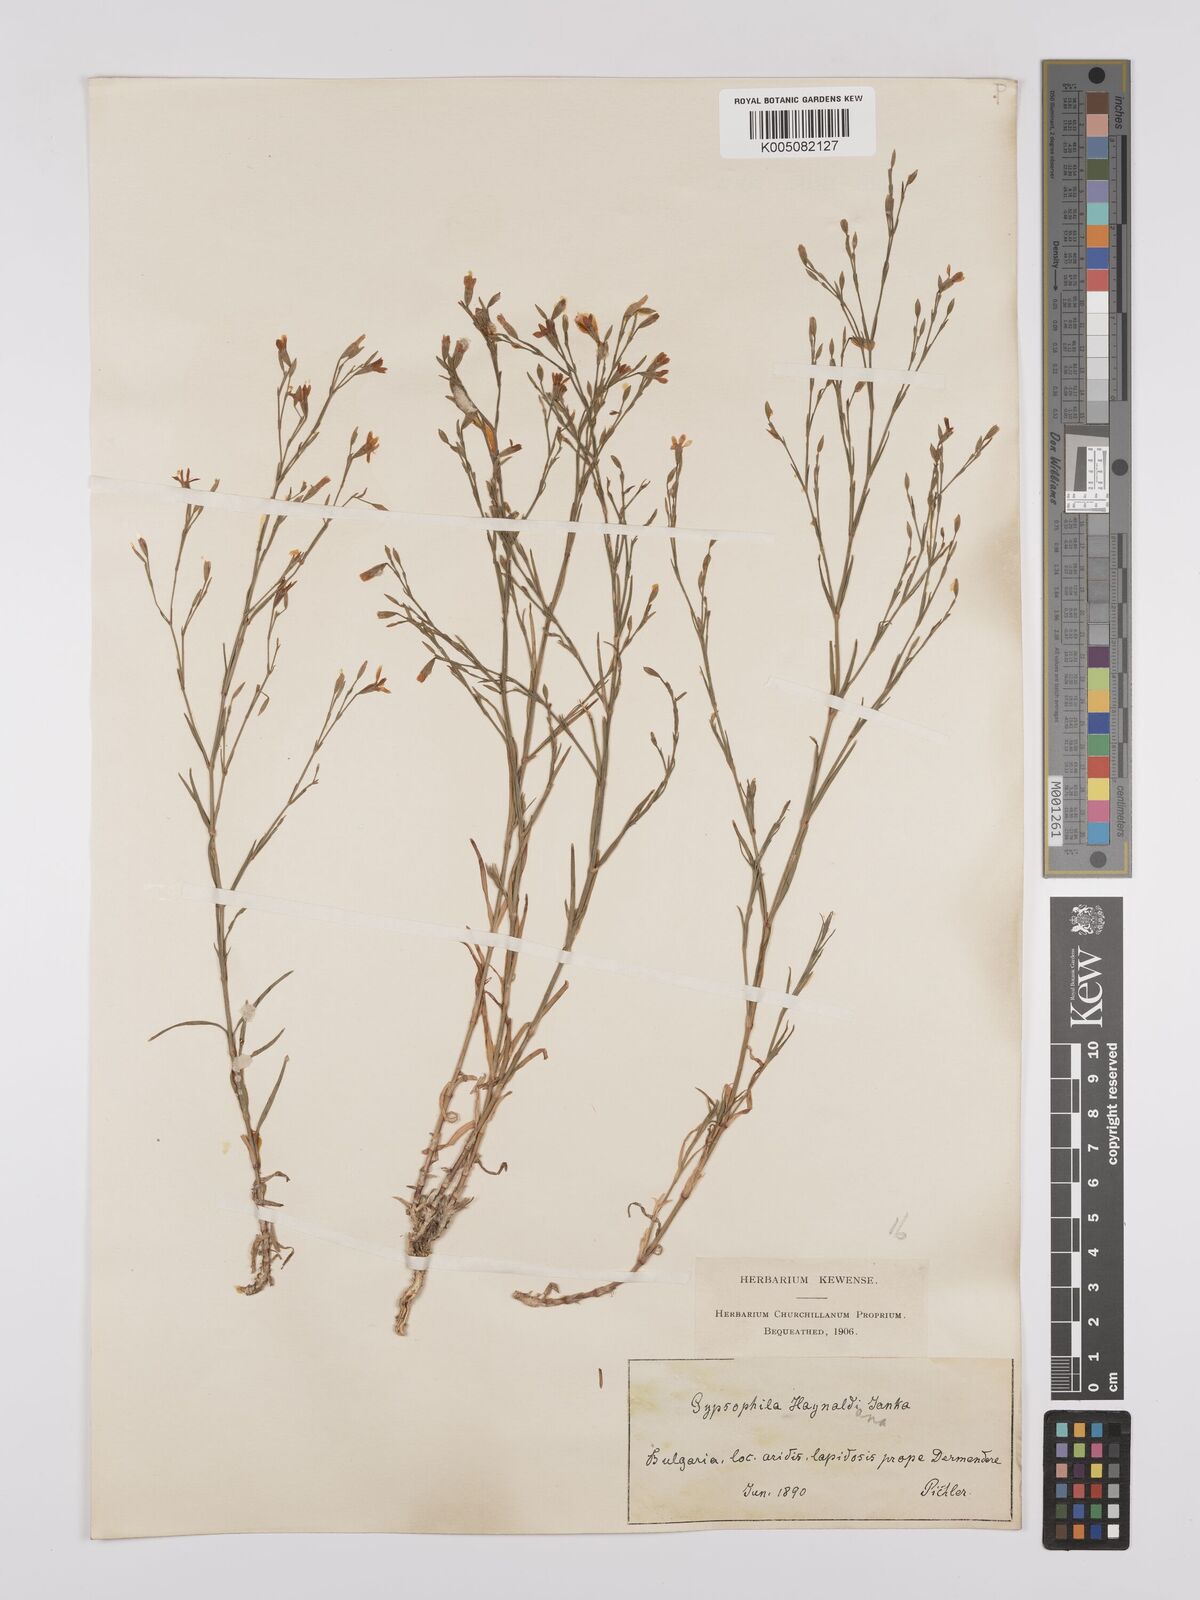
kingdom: Plantae
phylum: Tracheophyta
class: Magnoliopsida
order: Caryophyllales
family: Caryophyllaceae
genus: Dianthus
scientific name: Dianthus illyricus
